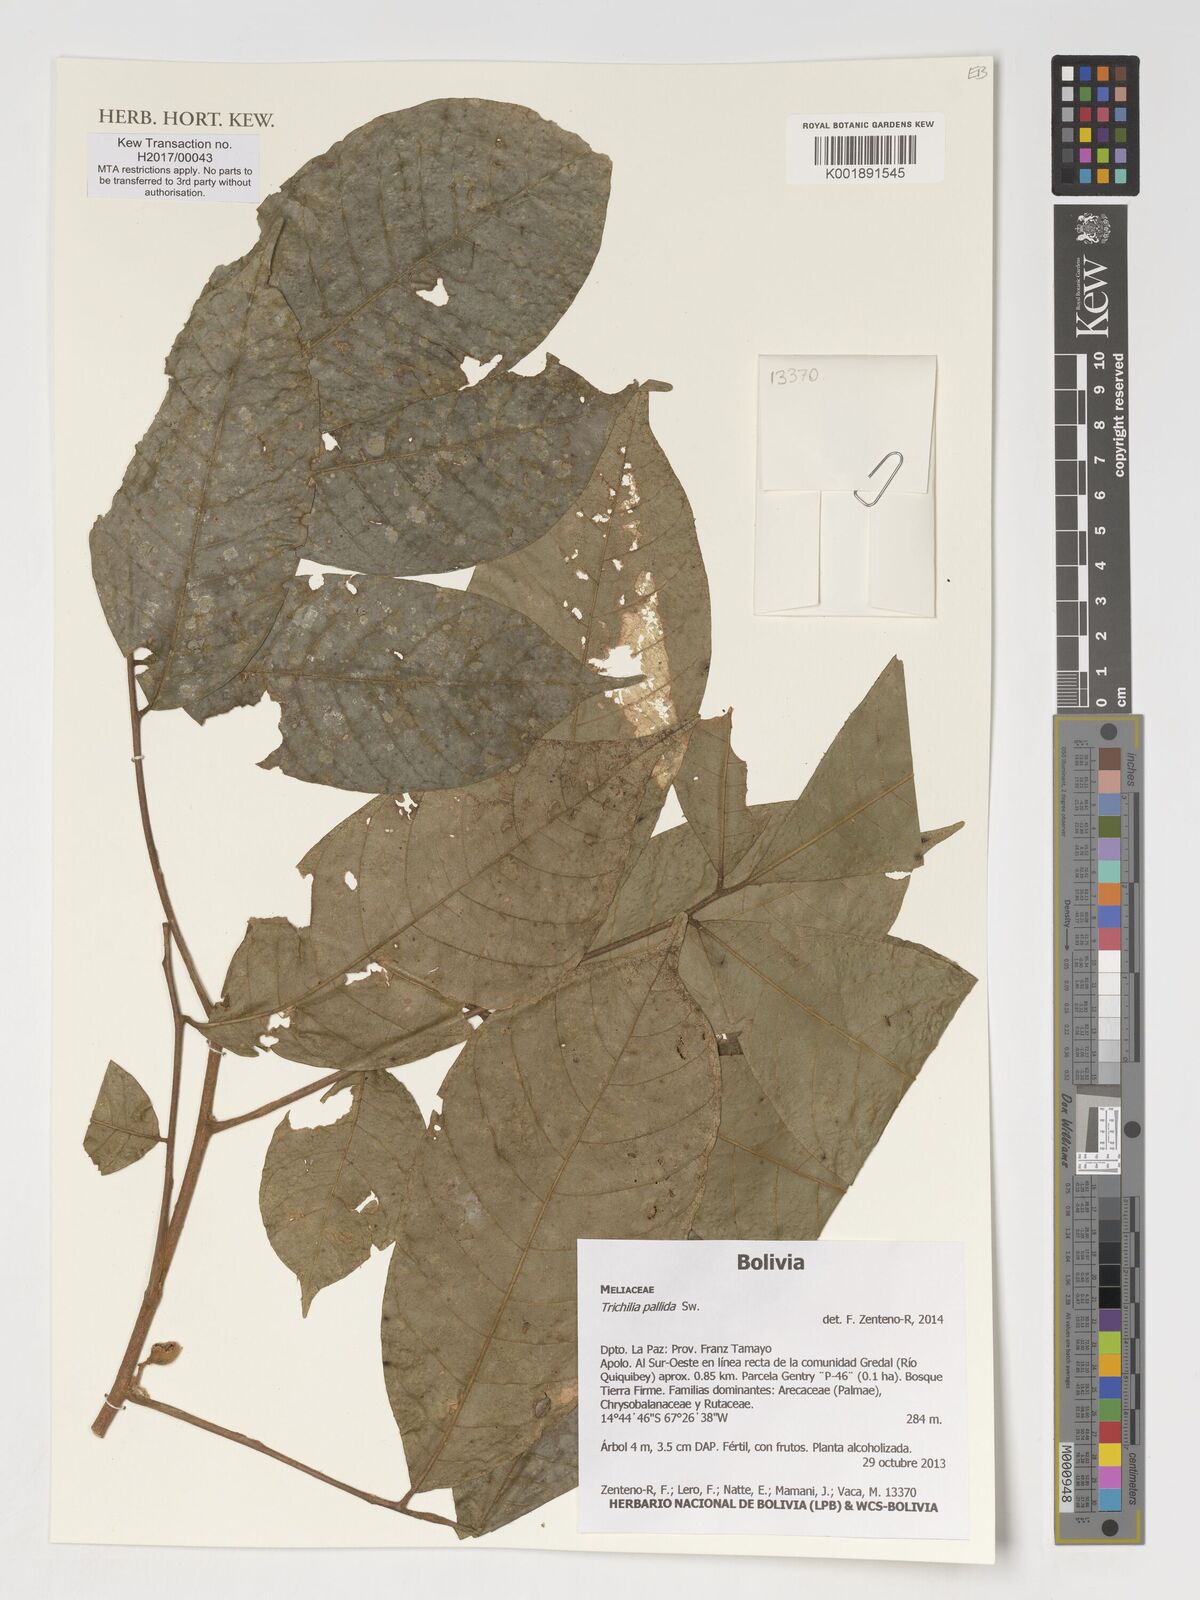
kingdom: Plantae
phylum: Tracheophyta
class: Magnoliopsida
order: Sapindales
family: Meliaceae
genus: Trichilia
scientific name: Trichilia pallida
